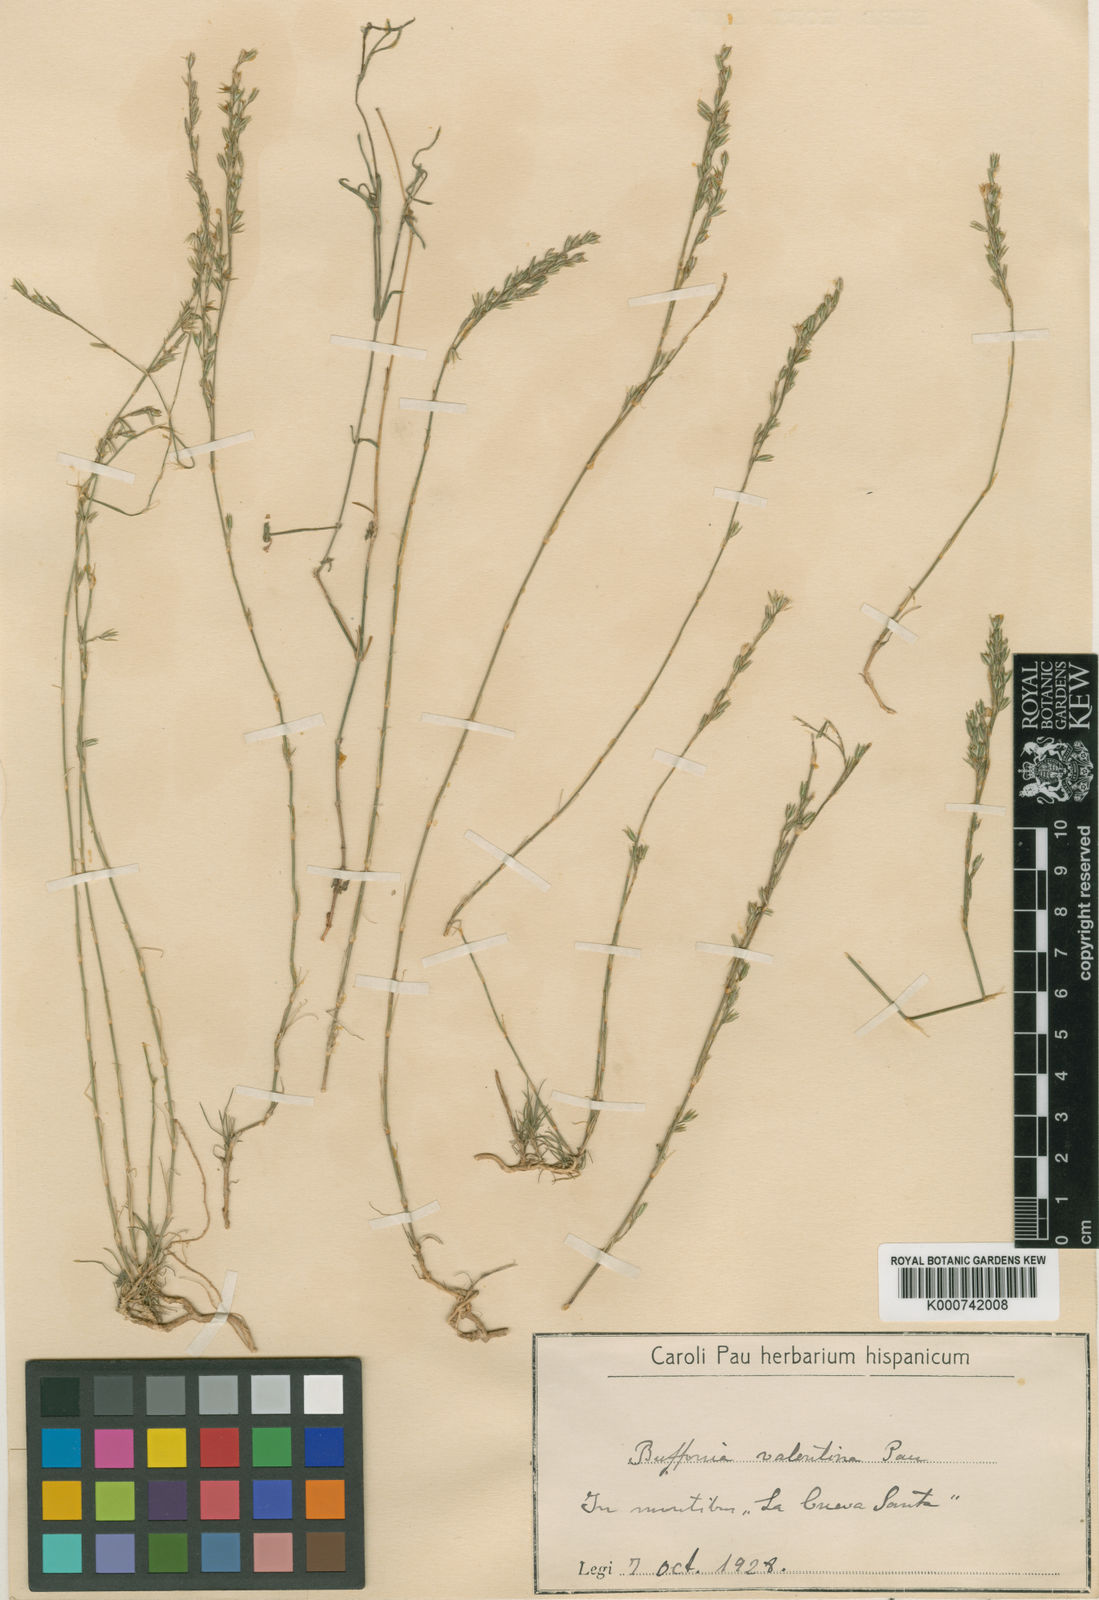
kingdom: Plantae
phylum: Tracheophyta
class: Magnoliopsida
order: Caryophyllales
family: Caryophyllaceae
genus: Bufonia
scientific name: Bufonia perennis
